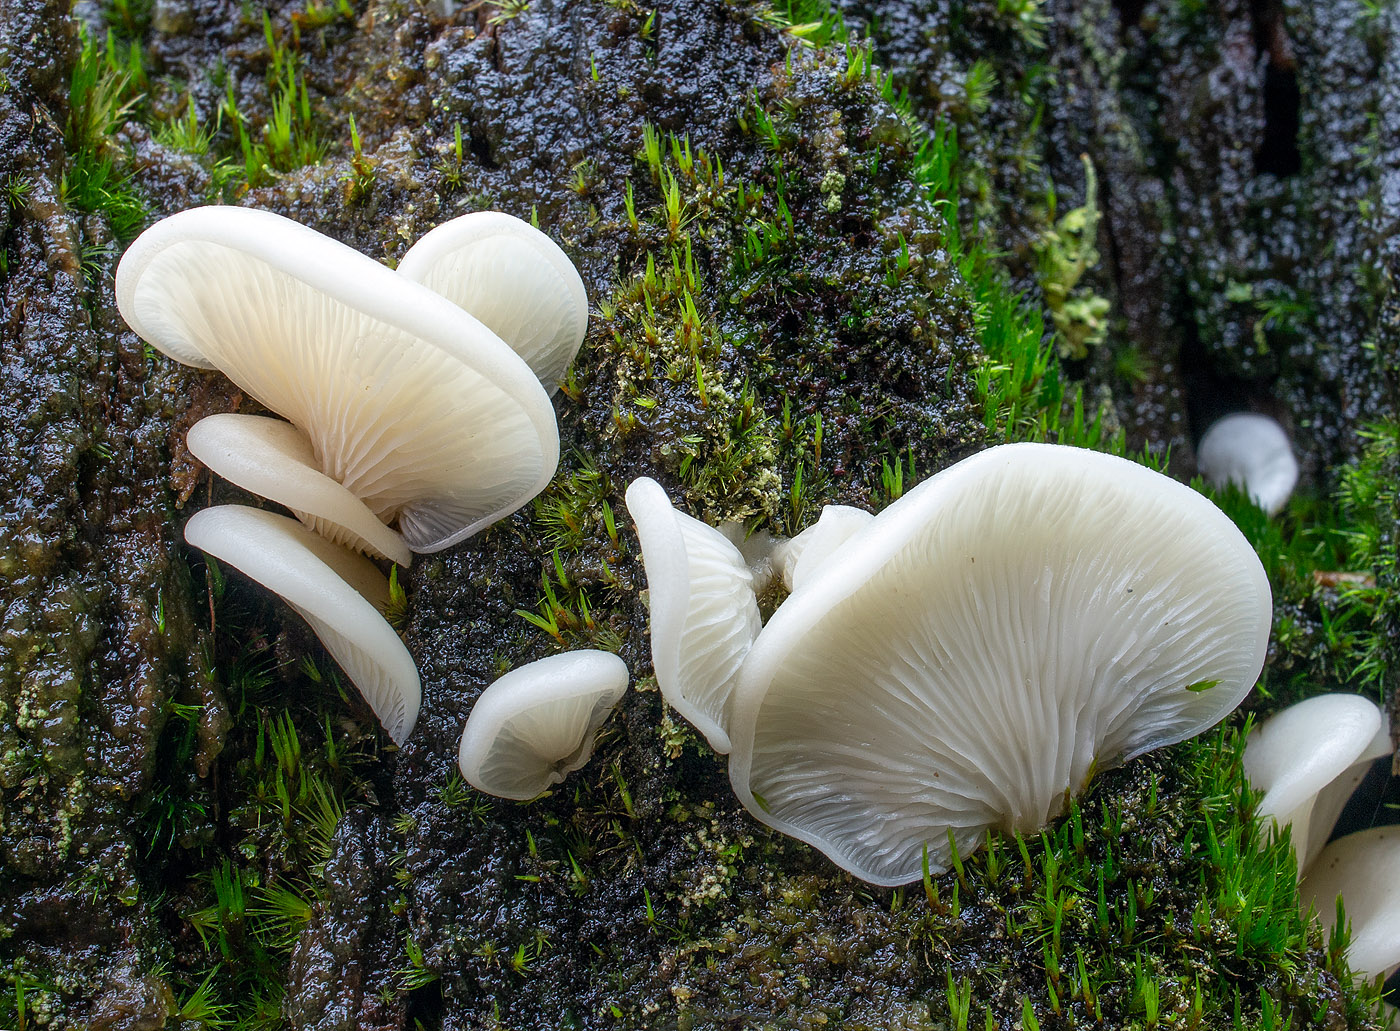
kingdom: Fungi
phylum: Basidiomycota
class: Agaricomycetes
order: Agaricales
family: Marasmiaceae
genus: Pleurocybella
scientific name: Pleurocybella porrigens
